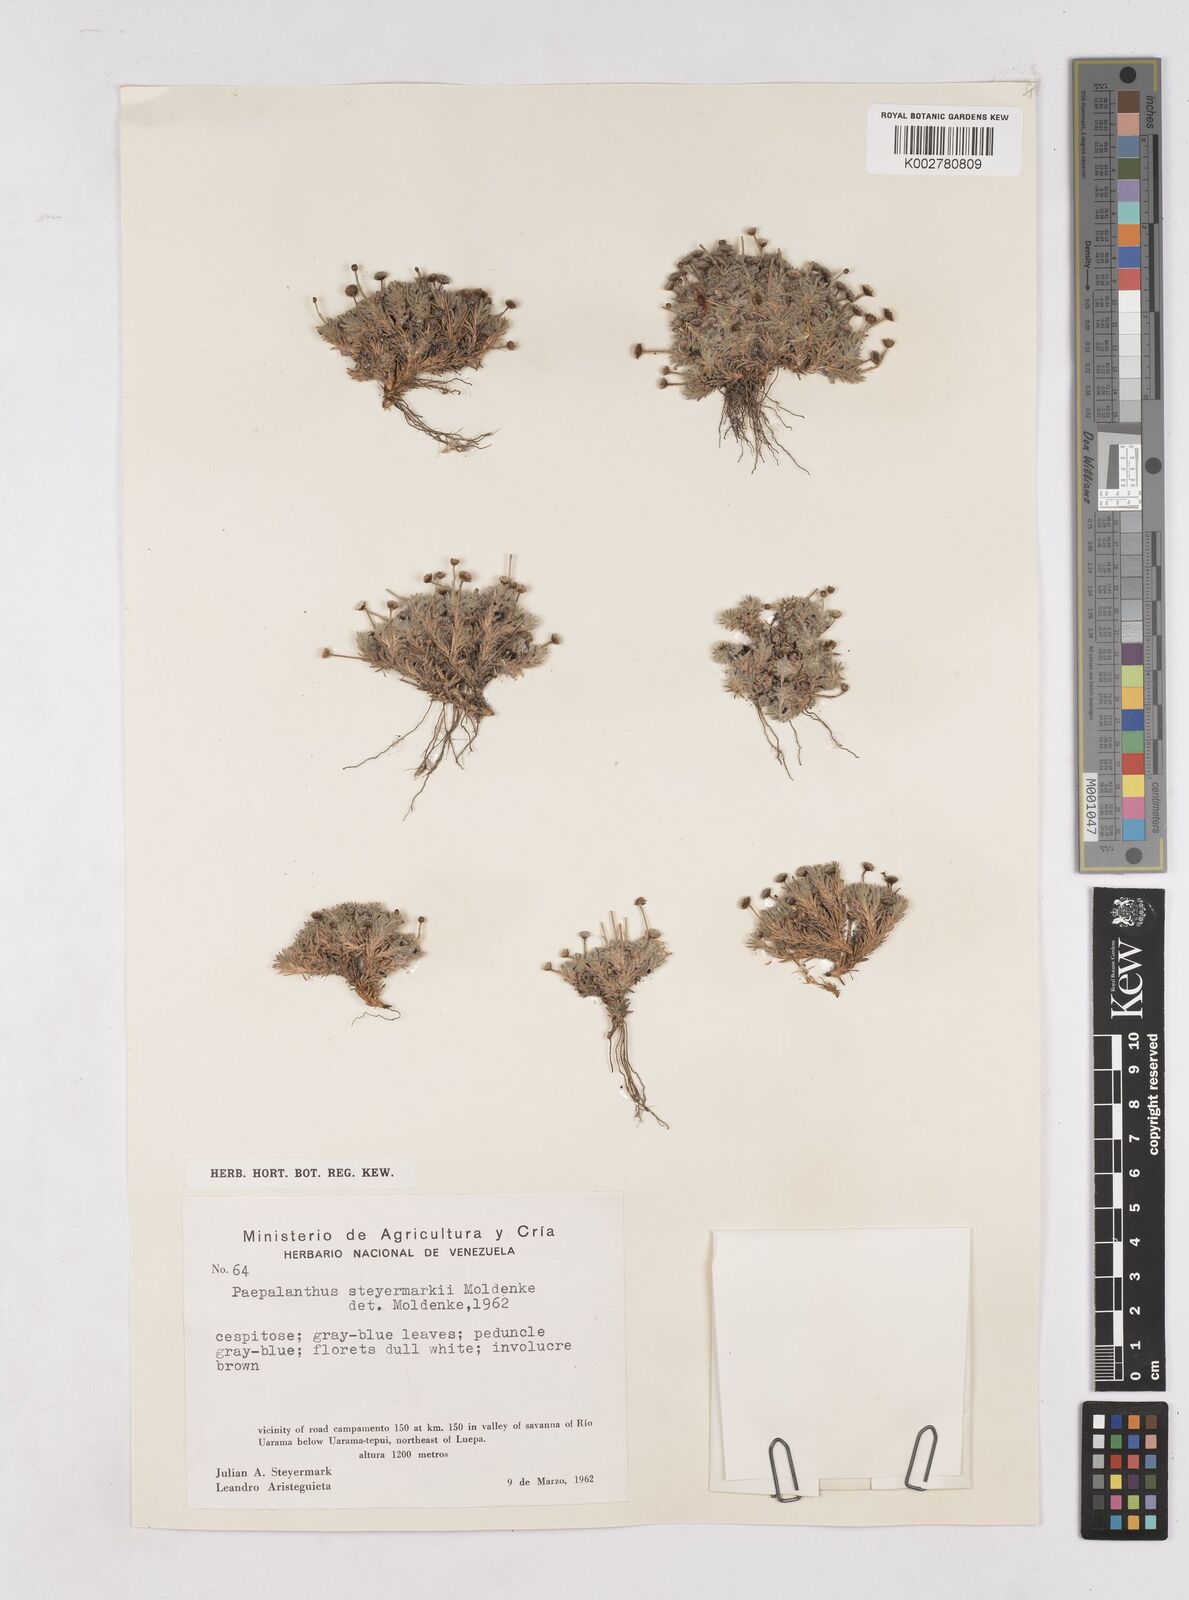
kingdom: Plantae
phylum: Tracheophyta
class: Liliopsida
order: Poales
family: Eriocaulaceae
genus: Paepalanthus
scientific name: Paepalanthus dichotomus
